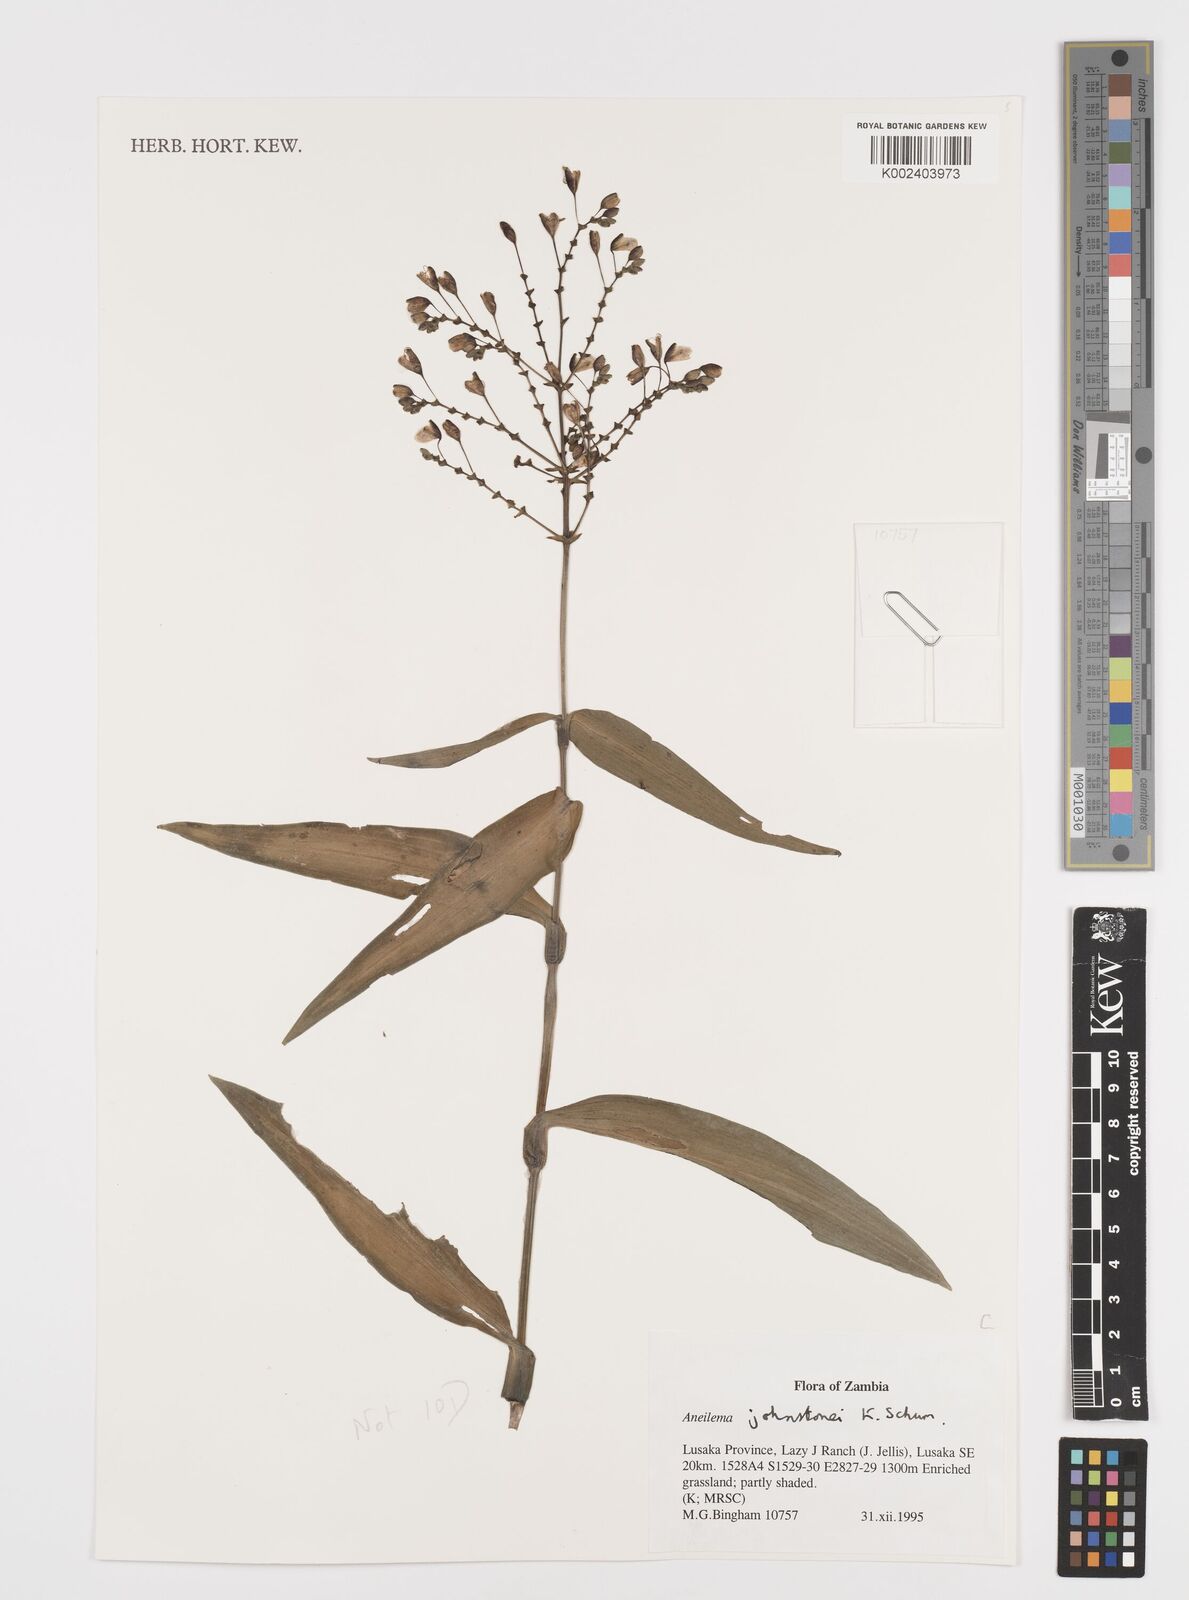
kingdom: Plantae
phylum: Tracheophyta
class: Liliopsida
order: Commelinales
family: Commelinaceae
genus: Aneilema
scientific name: Aneilema johnstonii
